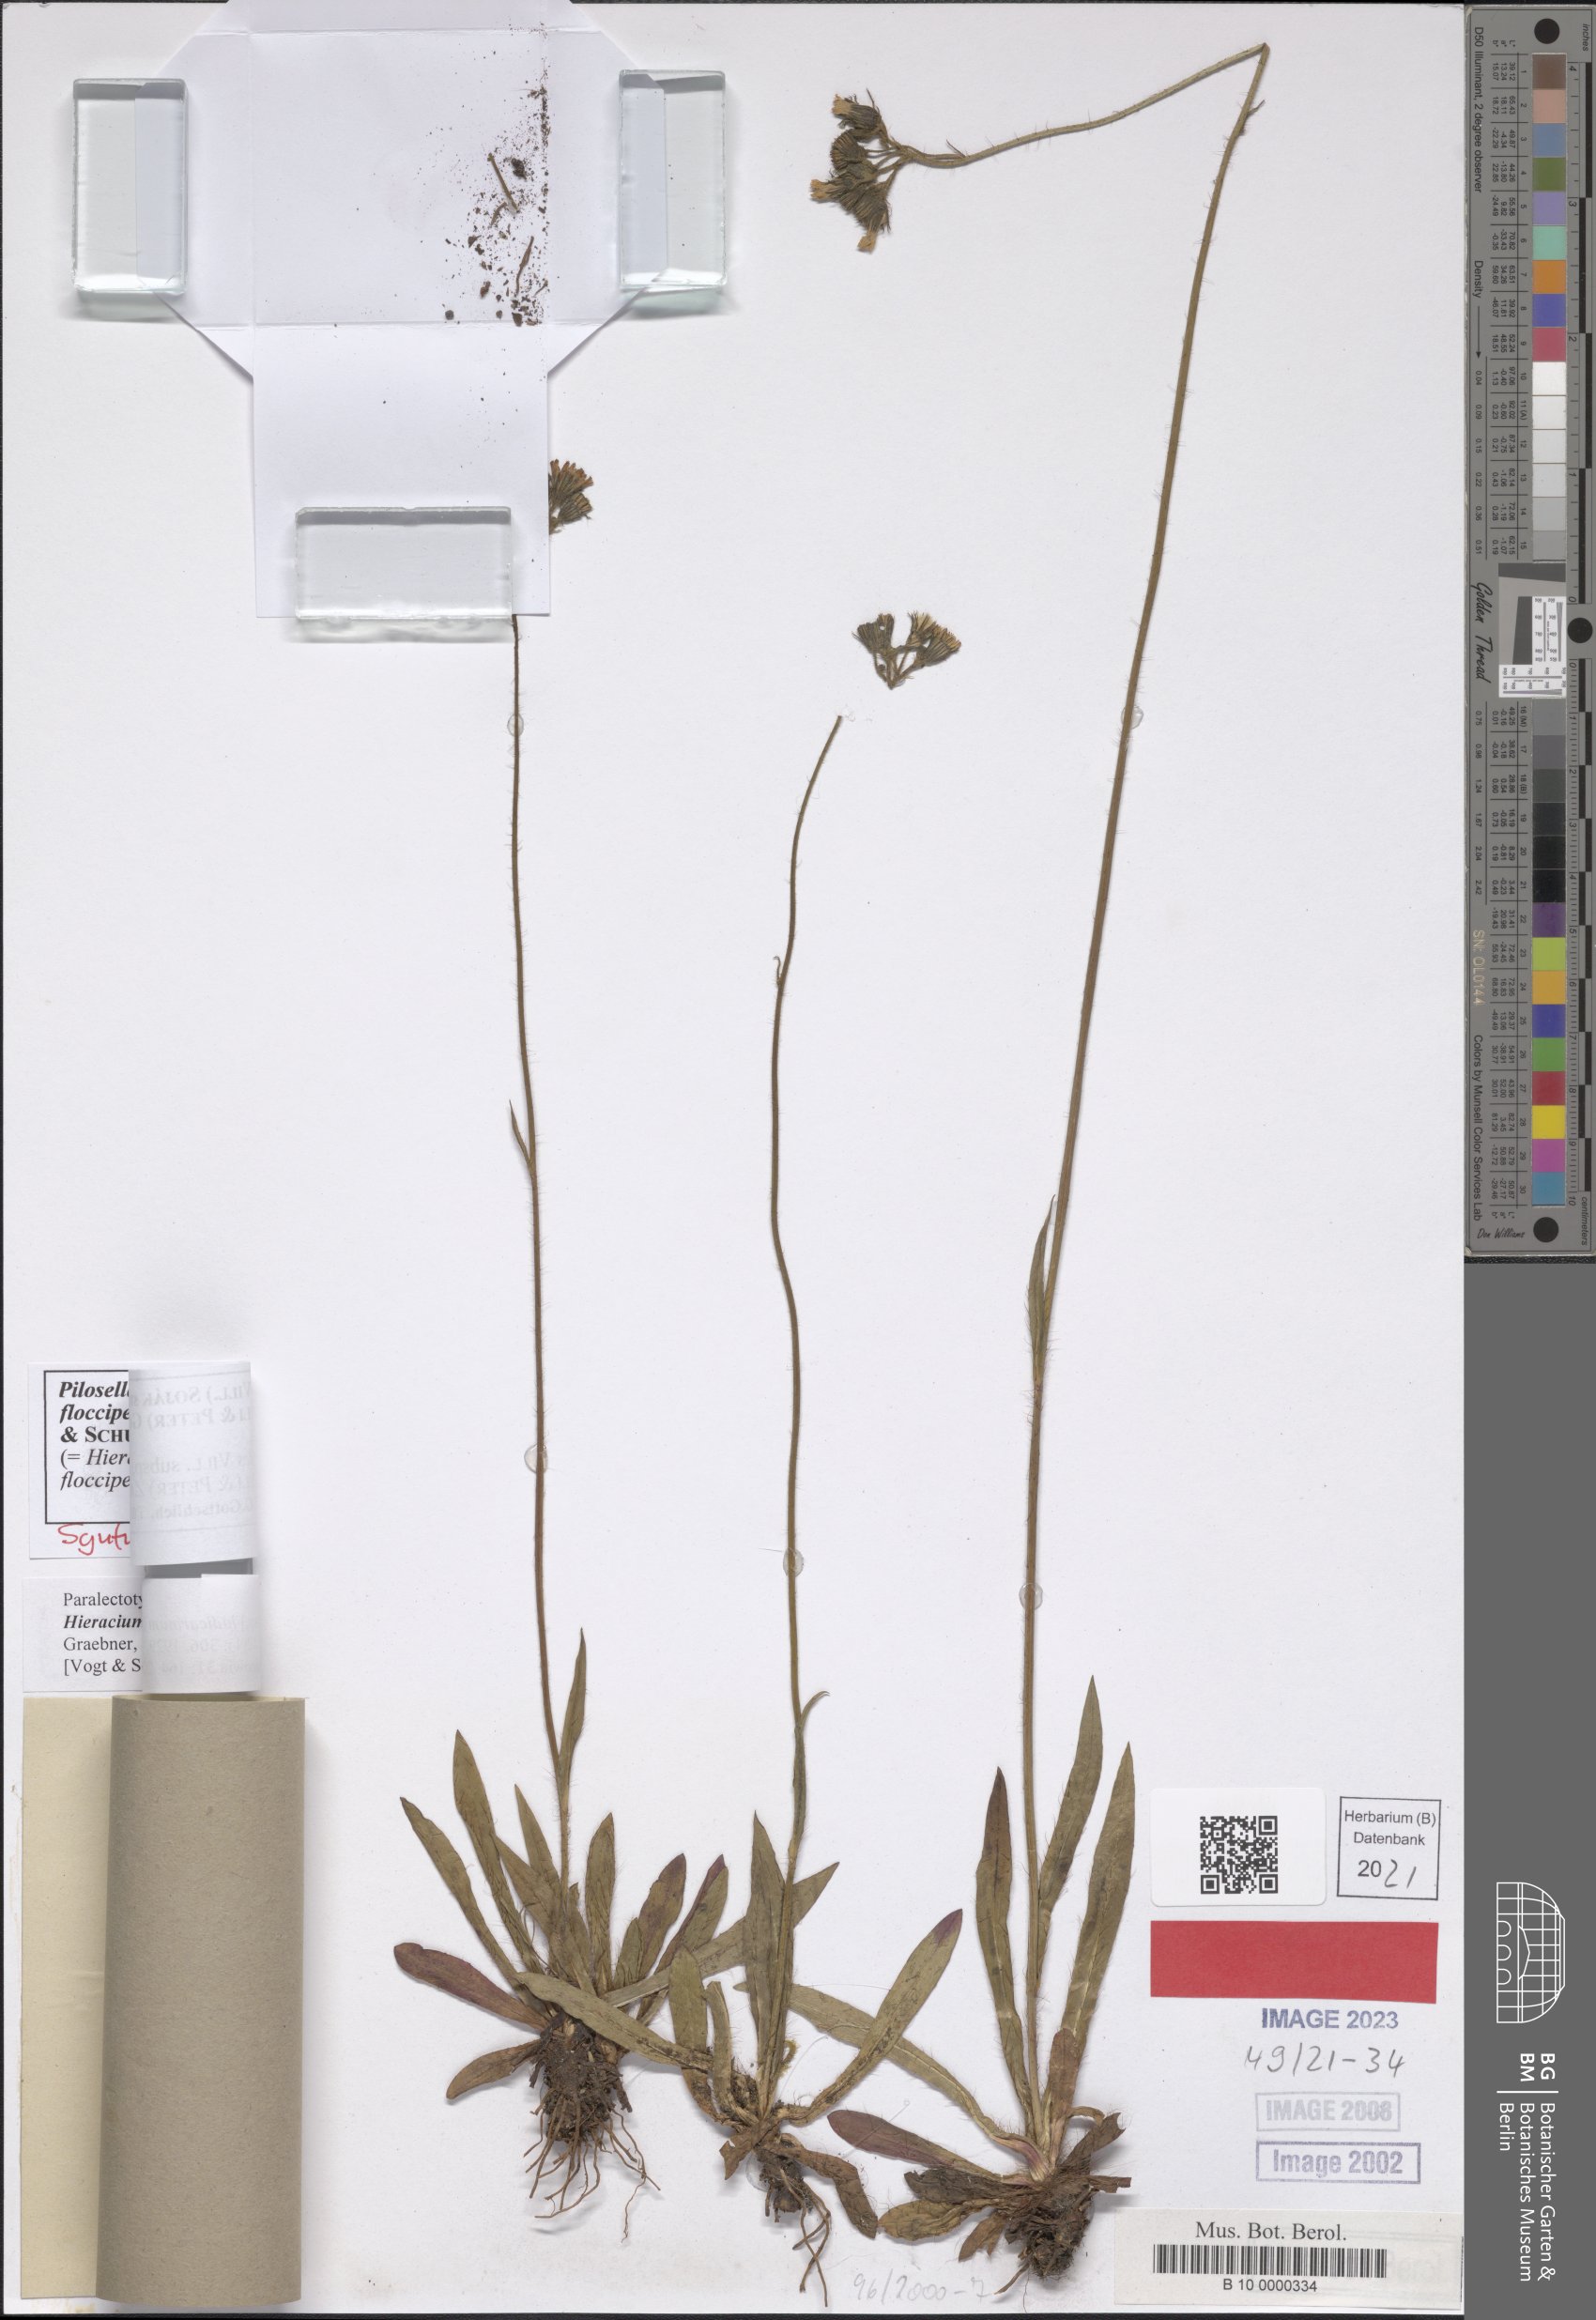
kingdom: Plantae
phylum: Tracheophyta
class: Magnoliopsida
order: Asterales
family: Asteraceae
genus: Pilosella
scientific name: Pilosella piloselloides
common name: Glaucous king-devil
